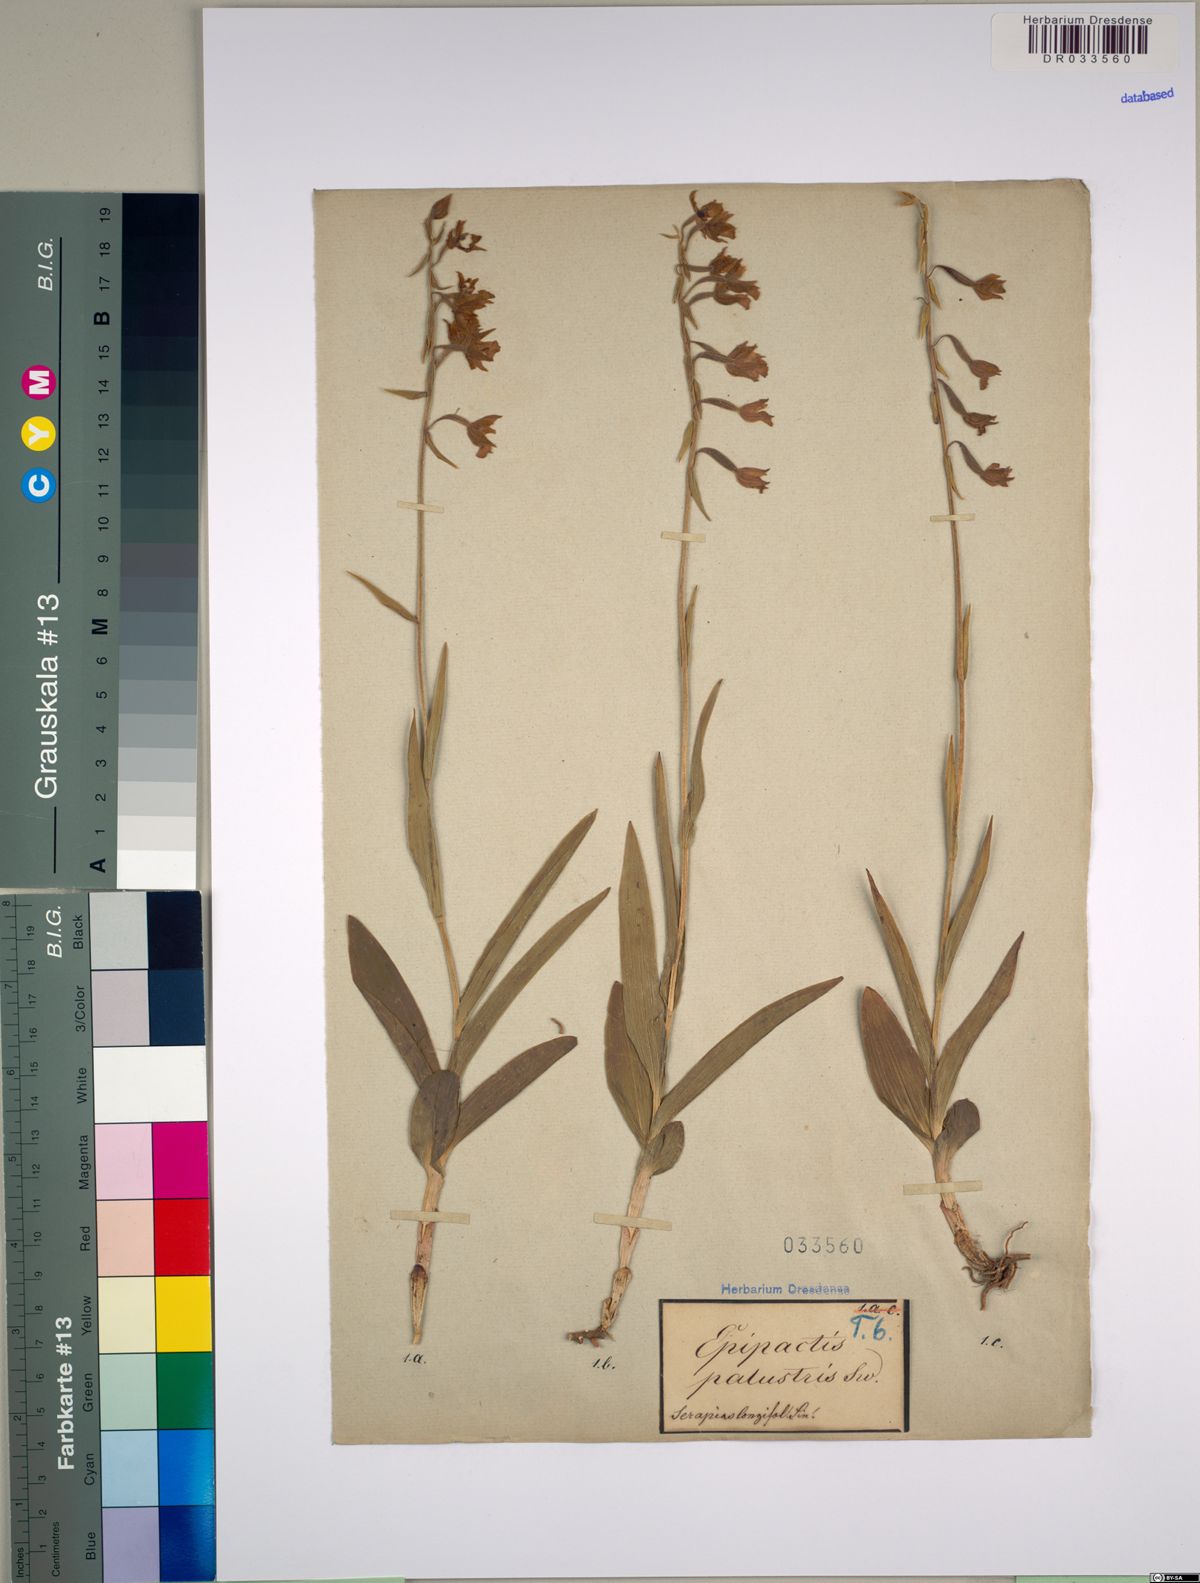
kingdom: Plantae
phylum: Tracheophyta
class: Liliopsida
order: Asparagales
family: Orchidaceae
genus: Epipactis
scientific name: Epipactis palustris
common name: Marsh helleborine
